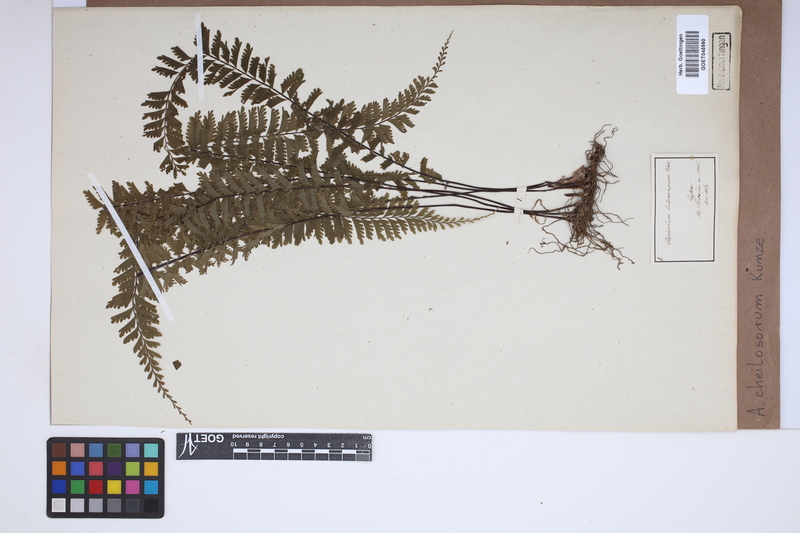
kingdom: Plantae
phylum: Tracheophyta
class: Polypodiopsida
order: Polypodiales
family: Aspleniaceae
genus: Hymenasplenium
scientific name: Hymenasplenium cheilosorum
